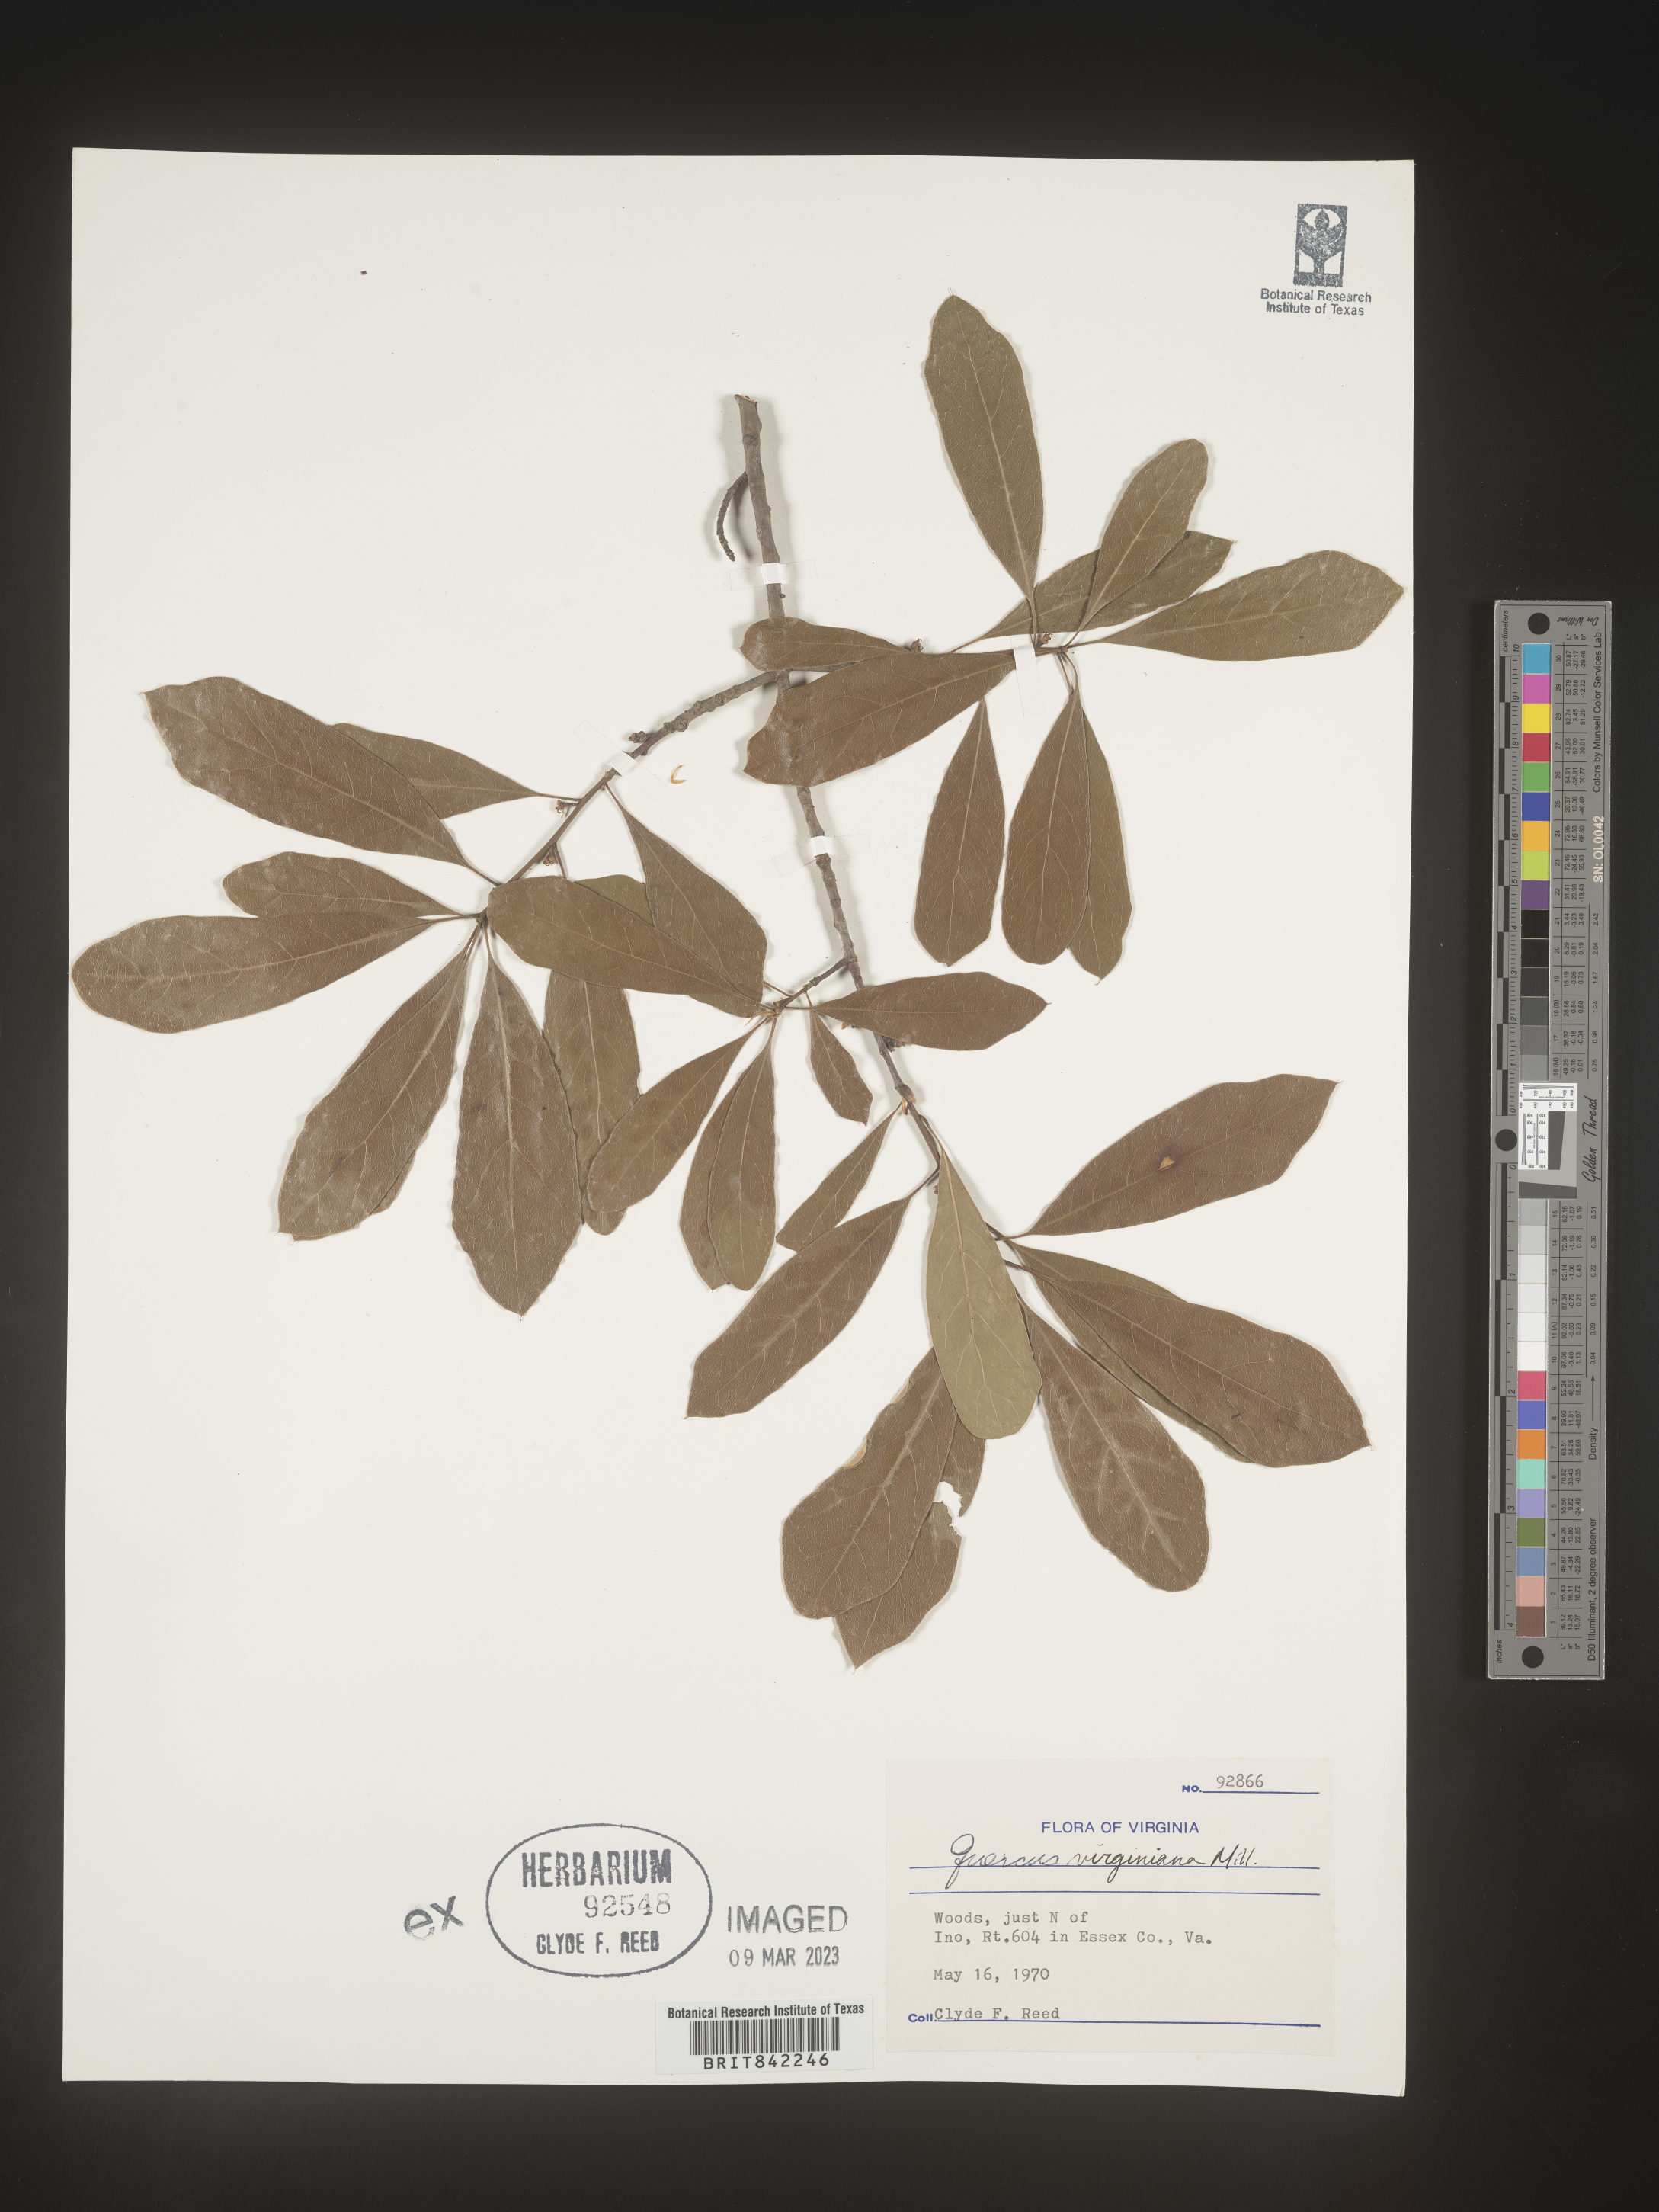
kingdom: Plantae
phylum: Tracheophyta
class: Magnoliopsida
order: Fagales
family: Fagaceae
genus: Quercus
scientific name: Quercus virginiana
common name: Southern live oak
